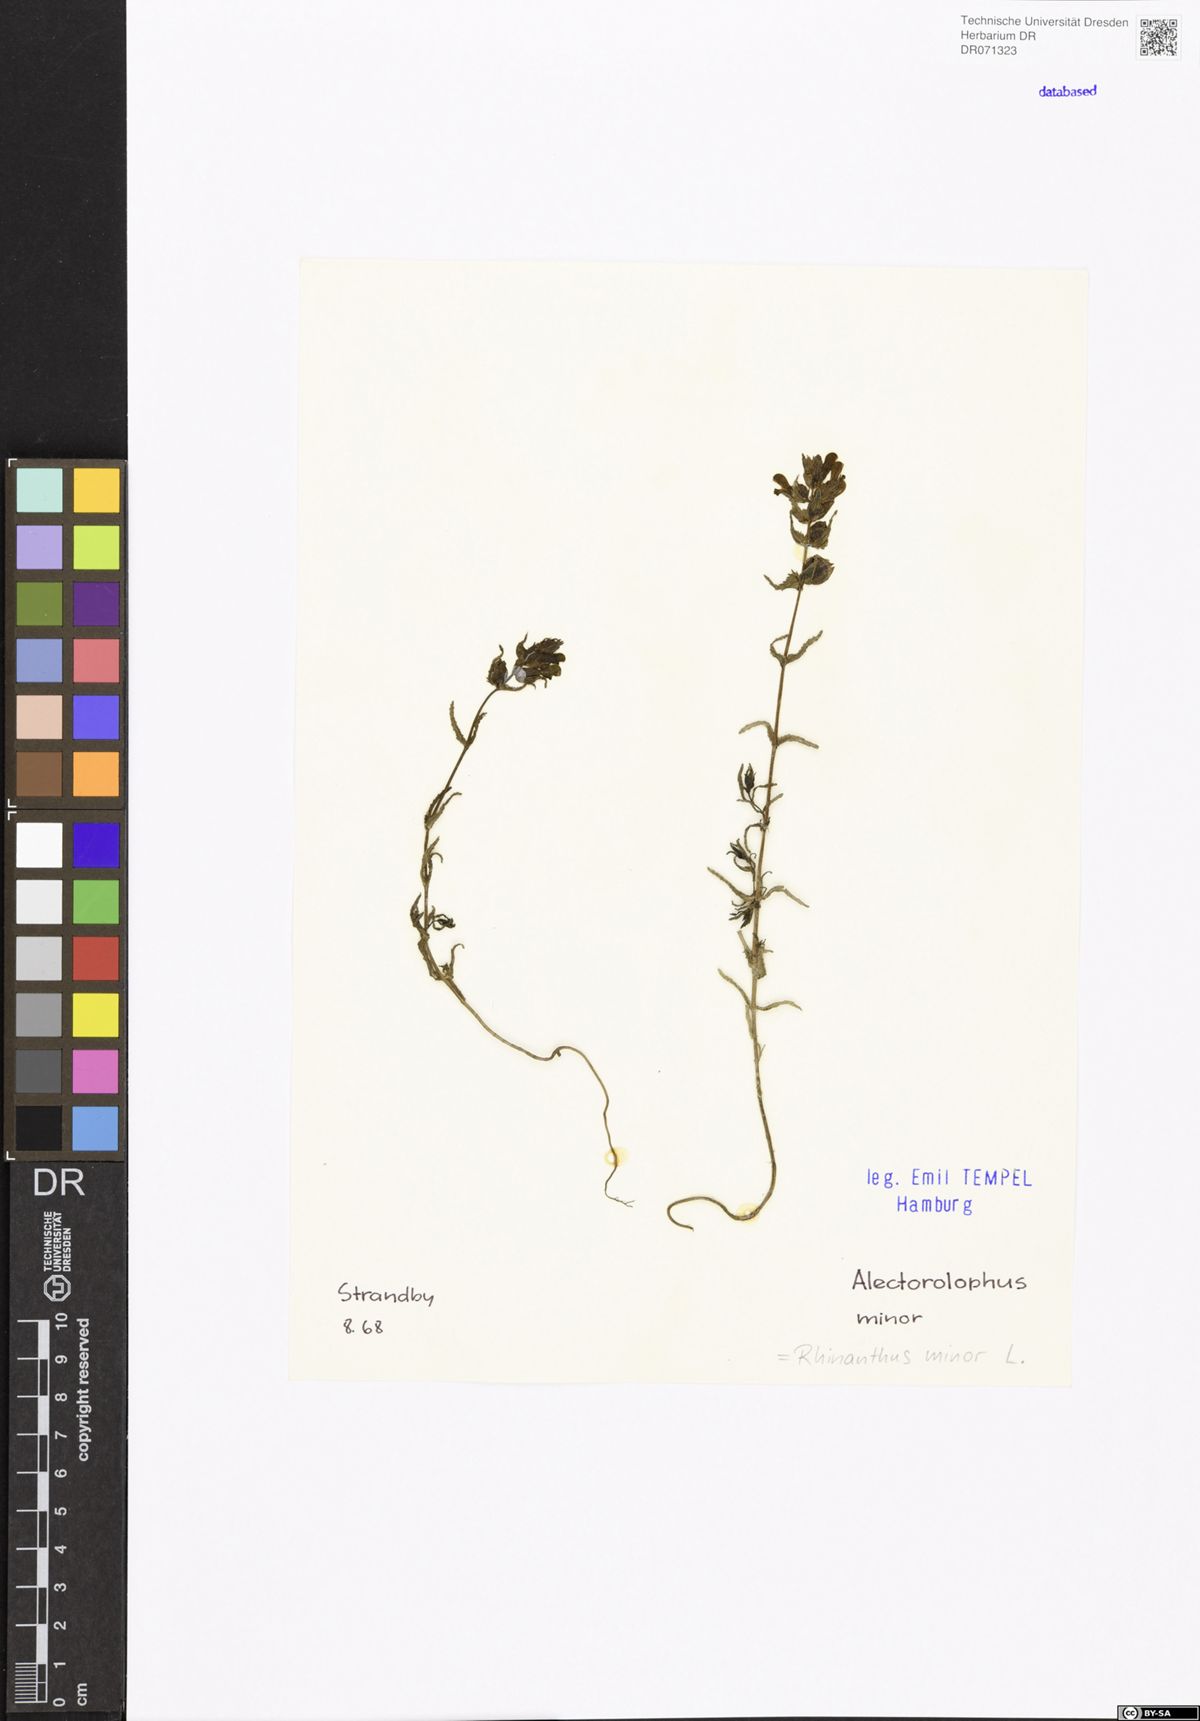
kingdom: Plantae
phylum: Tracheophyta
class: Magnoliopsida
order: Lamiales
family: Orobanchaceae
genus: Rhinanthus
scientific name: Rhinanthus minor
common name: Yellow-rattle
